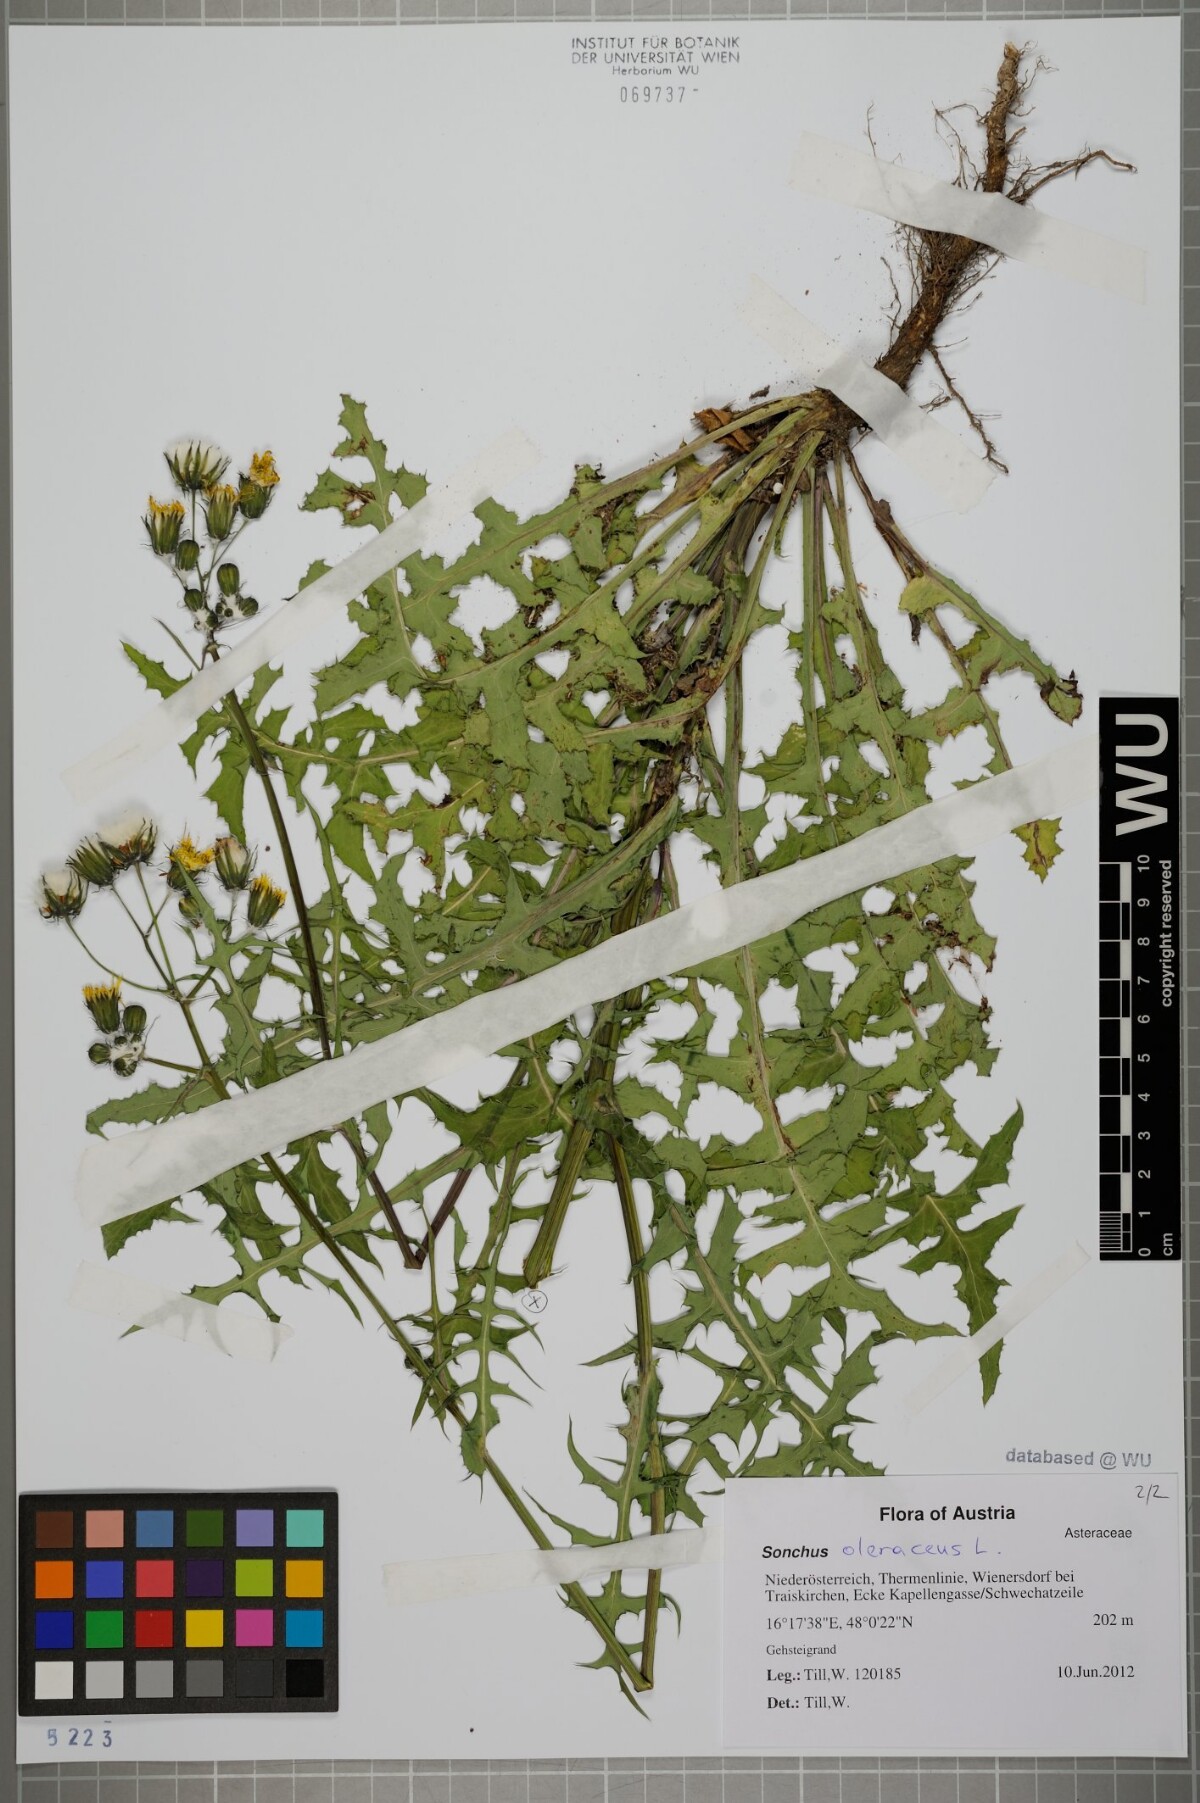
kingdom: Plantae
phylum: Tracheophyta
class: Magnoliopsida
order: Asterales
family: Asteraceae
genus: Sonchus
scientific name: Sonchus oleraceus
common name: Common sowthistle
